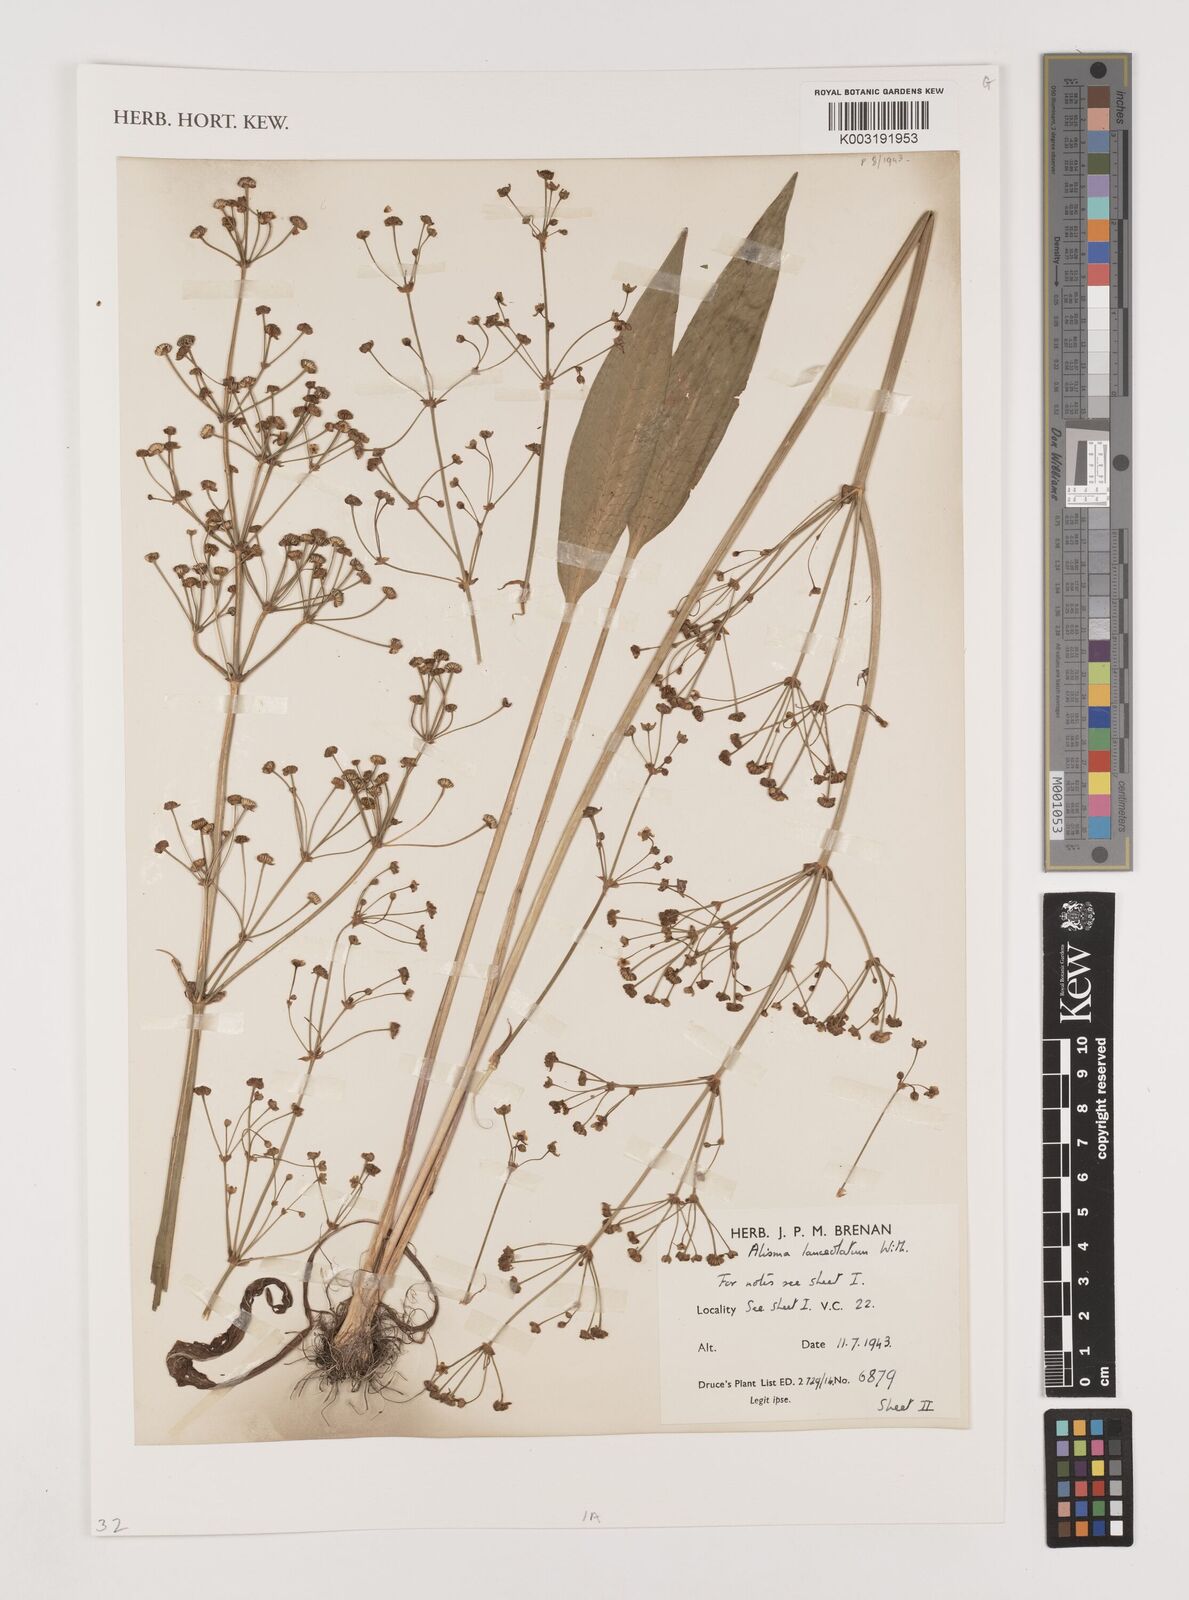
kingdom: Plantae
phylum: Tracheophyta
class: Liliopsida
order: Alismatales
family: Alismataceae
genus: Alisma
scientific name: Alisma lanceolatum
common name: Narrow-leaved water-plantain
